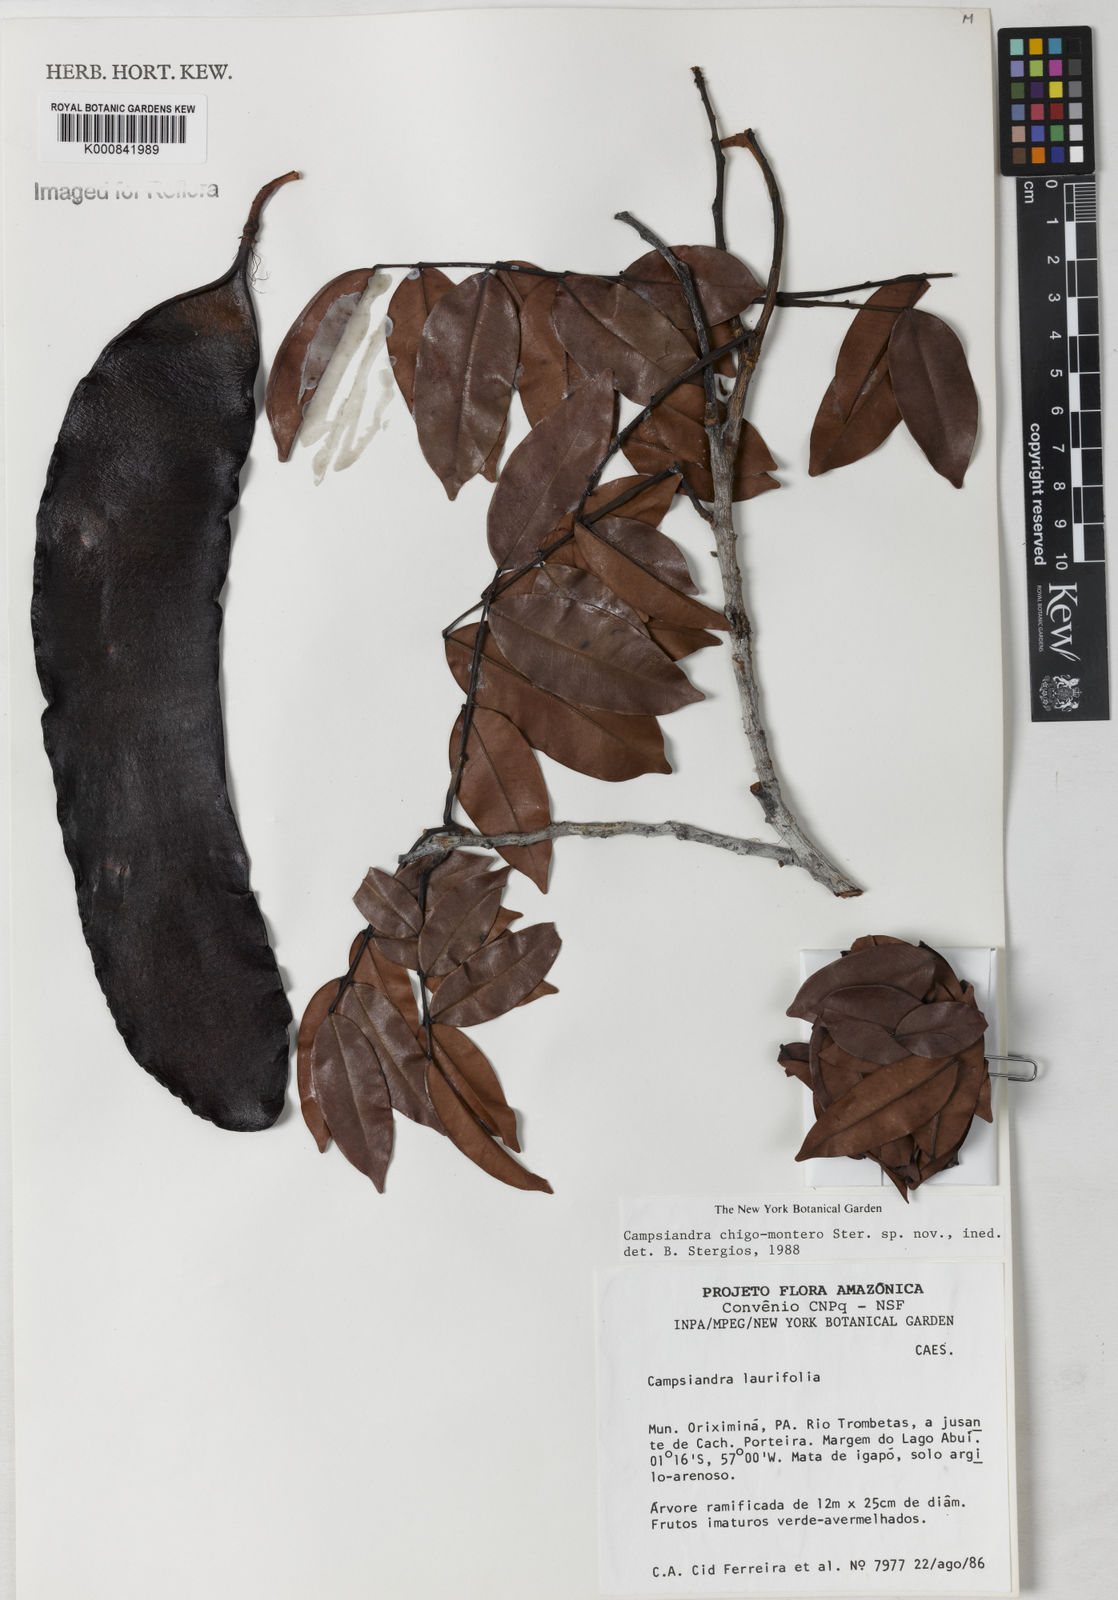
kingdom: Plantae
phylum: Tracheophyta
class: Magnoliopsida
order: Fabales
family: Fabaceae
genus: Campsiandra
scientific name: Campsiandra chigo-montero
